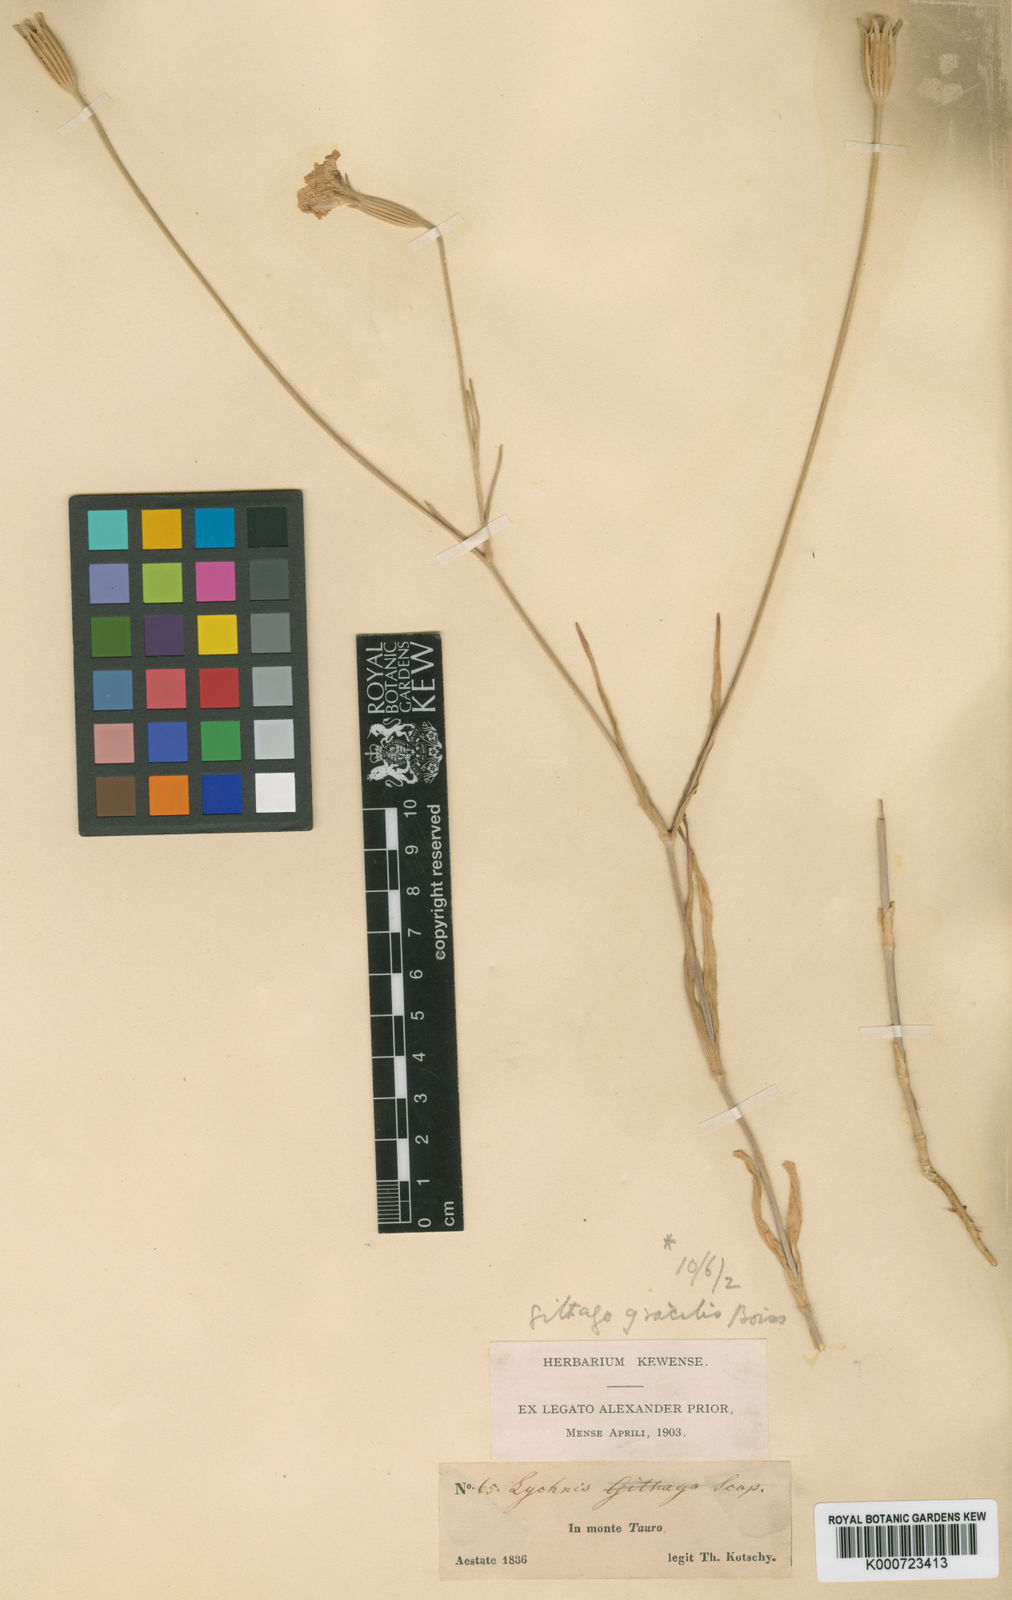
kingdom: Plantae
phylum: Tracheophyta
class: Magnoliopsida
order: Caryophyllales
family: Caryophyllaceae
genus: Agrostemma
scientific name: Agrostemma brachyloba
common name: Narrow corncockle
